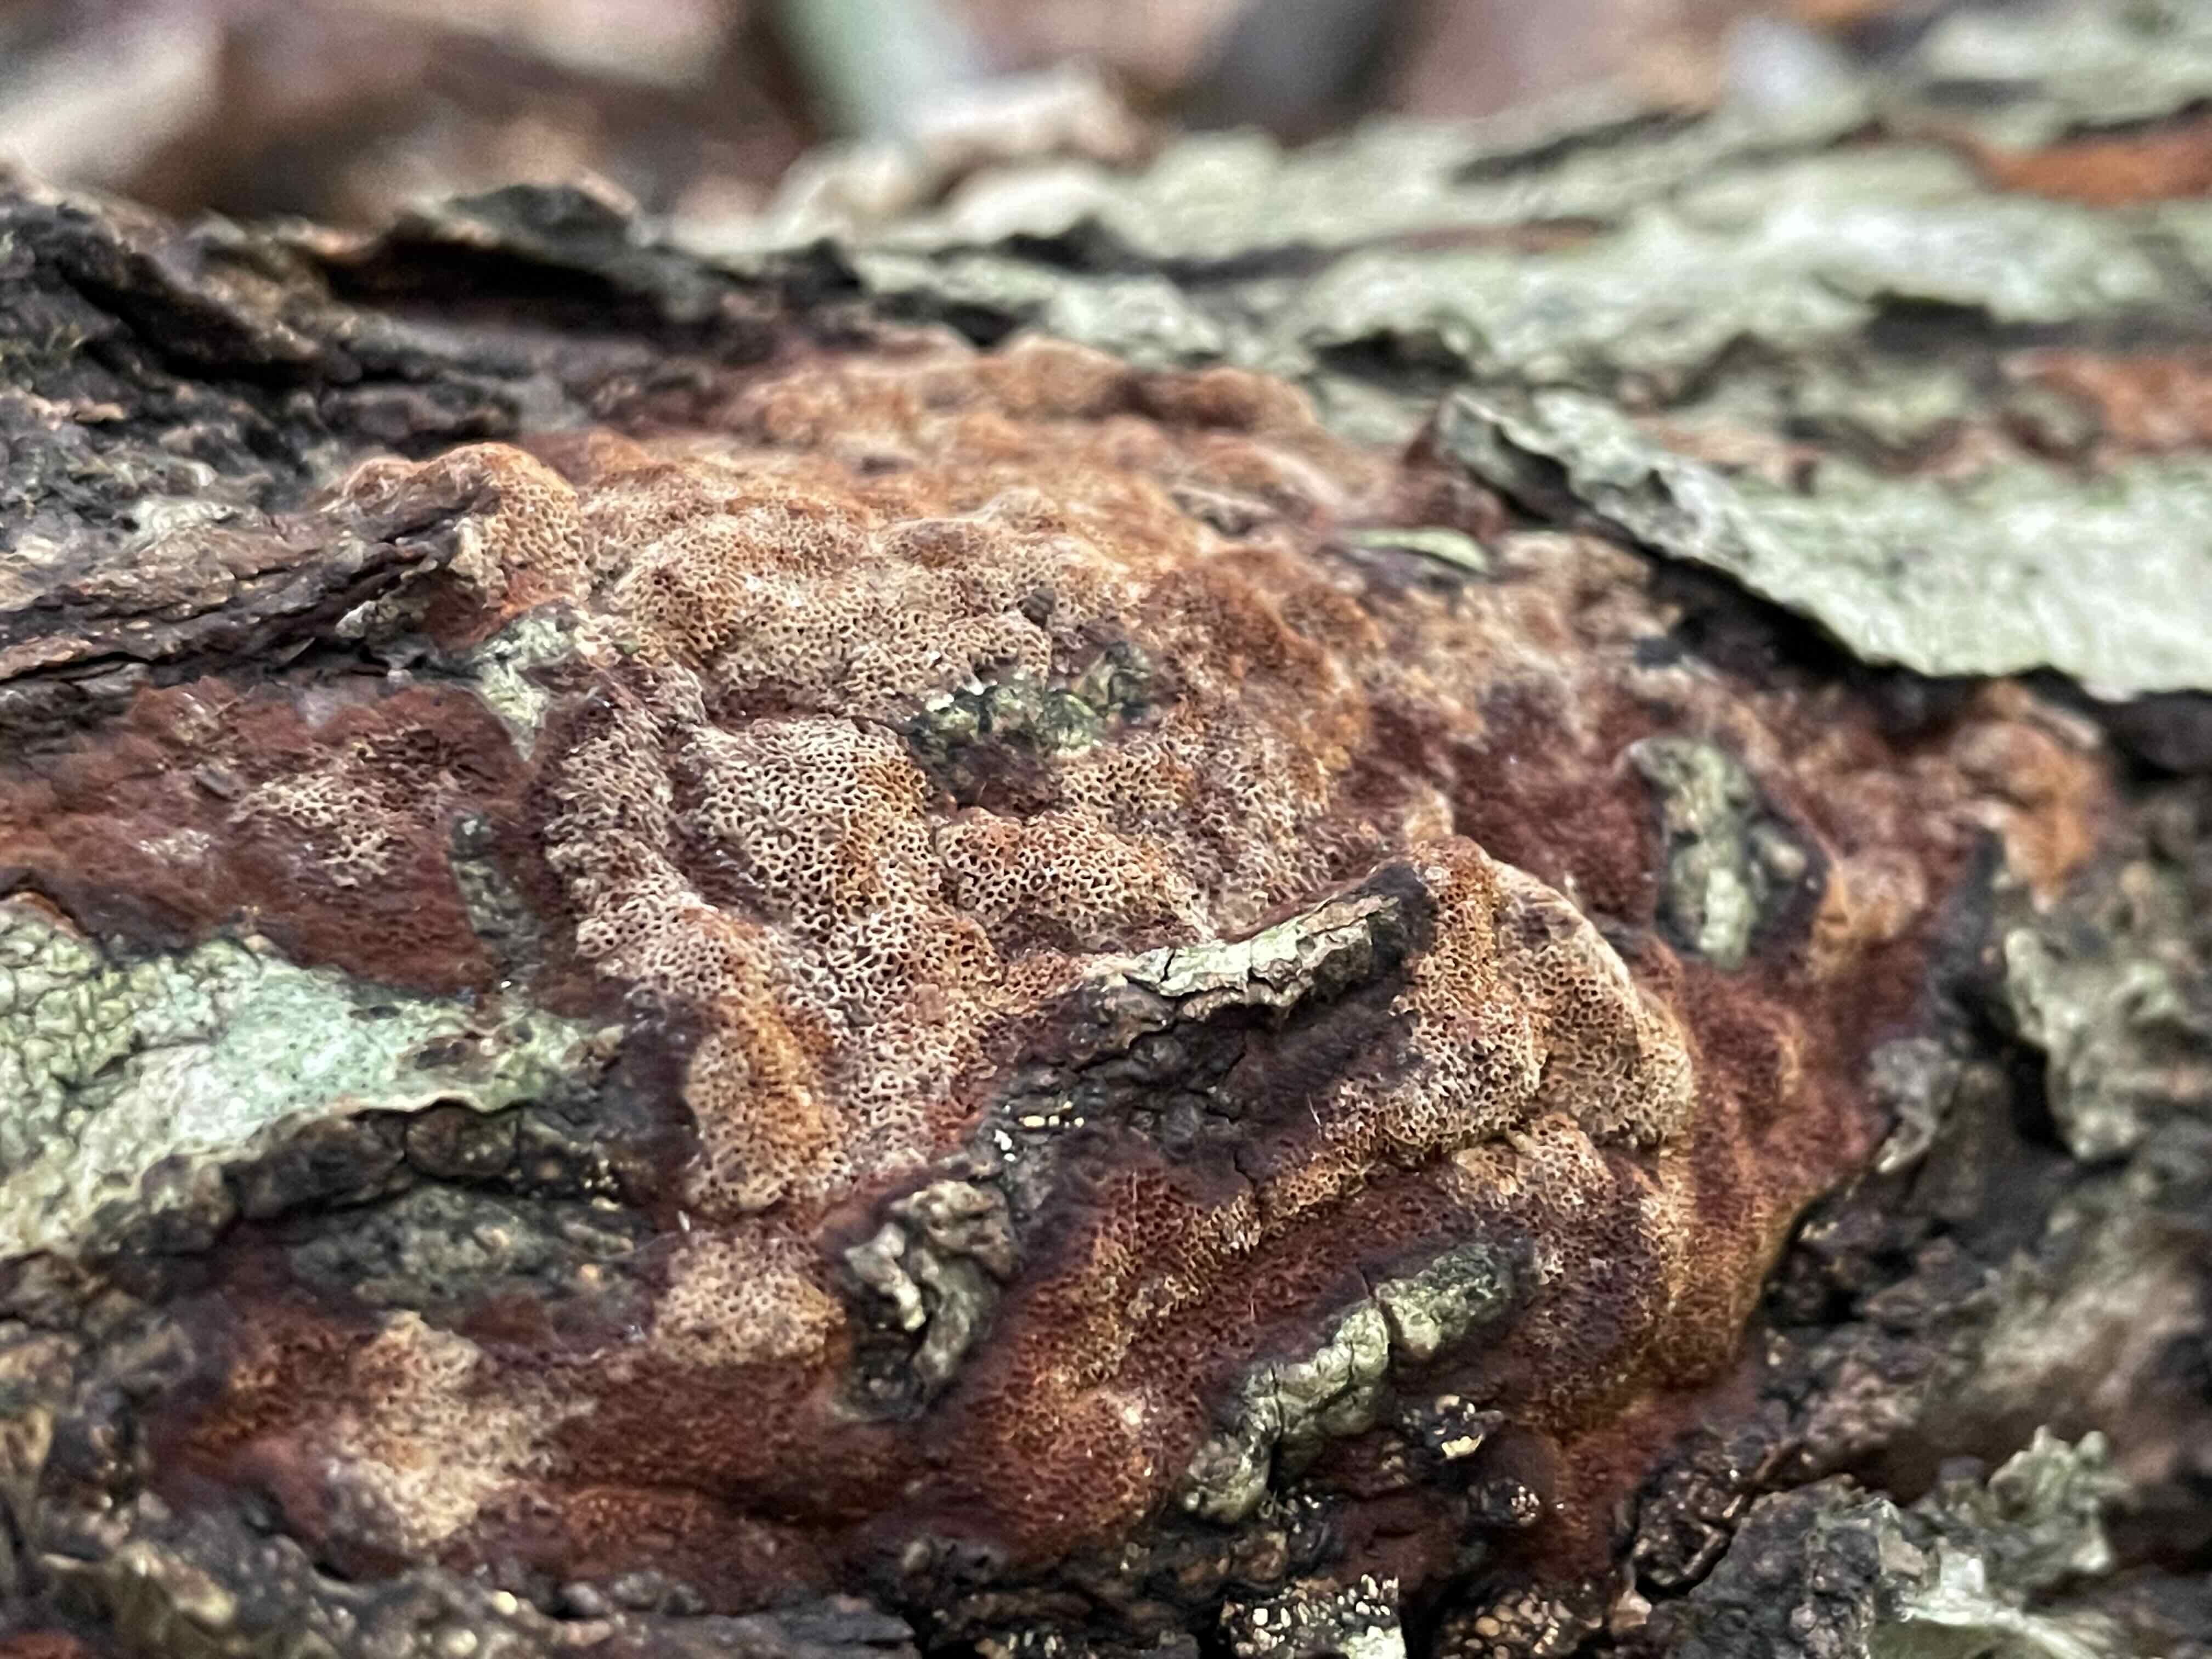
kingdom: Fungi
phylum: Basidiomycota
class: Agaricomycetes
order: Hymenochaetales
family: Hymenochaetaceae
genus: Fuscoporia
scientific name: Fuscoporia
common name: Ildporesvamp
